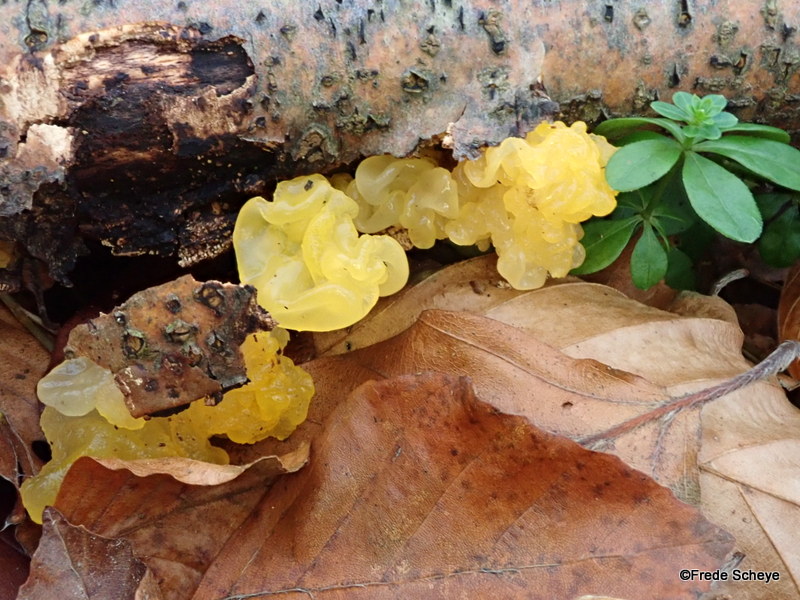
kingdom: Fungi
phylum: Basidiomycota
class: Tremellomycetes
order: Tremellales
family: Tremellaceae
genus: Tremella
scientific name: Tremella mesenterica
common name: gul bævresvamp
